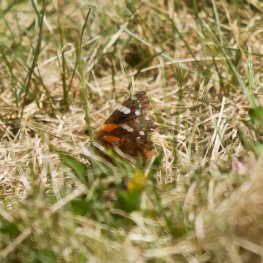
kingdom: Animalia
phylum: Arthropoda
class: Insecta
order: Lepidoptera
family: Nymphalidae
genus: Vanessa
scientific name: Vanessa atalanta
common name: Red Admiral
